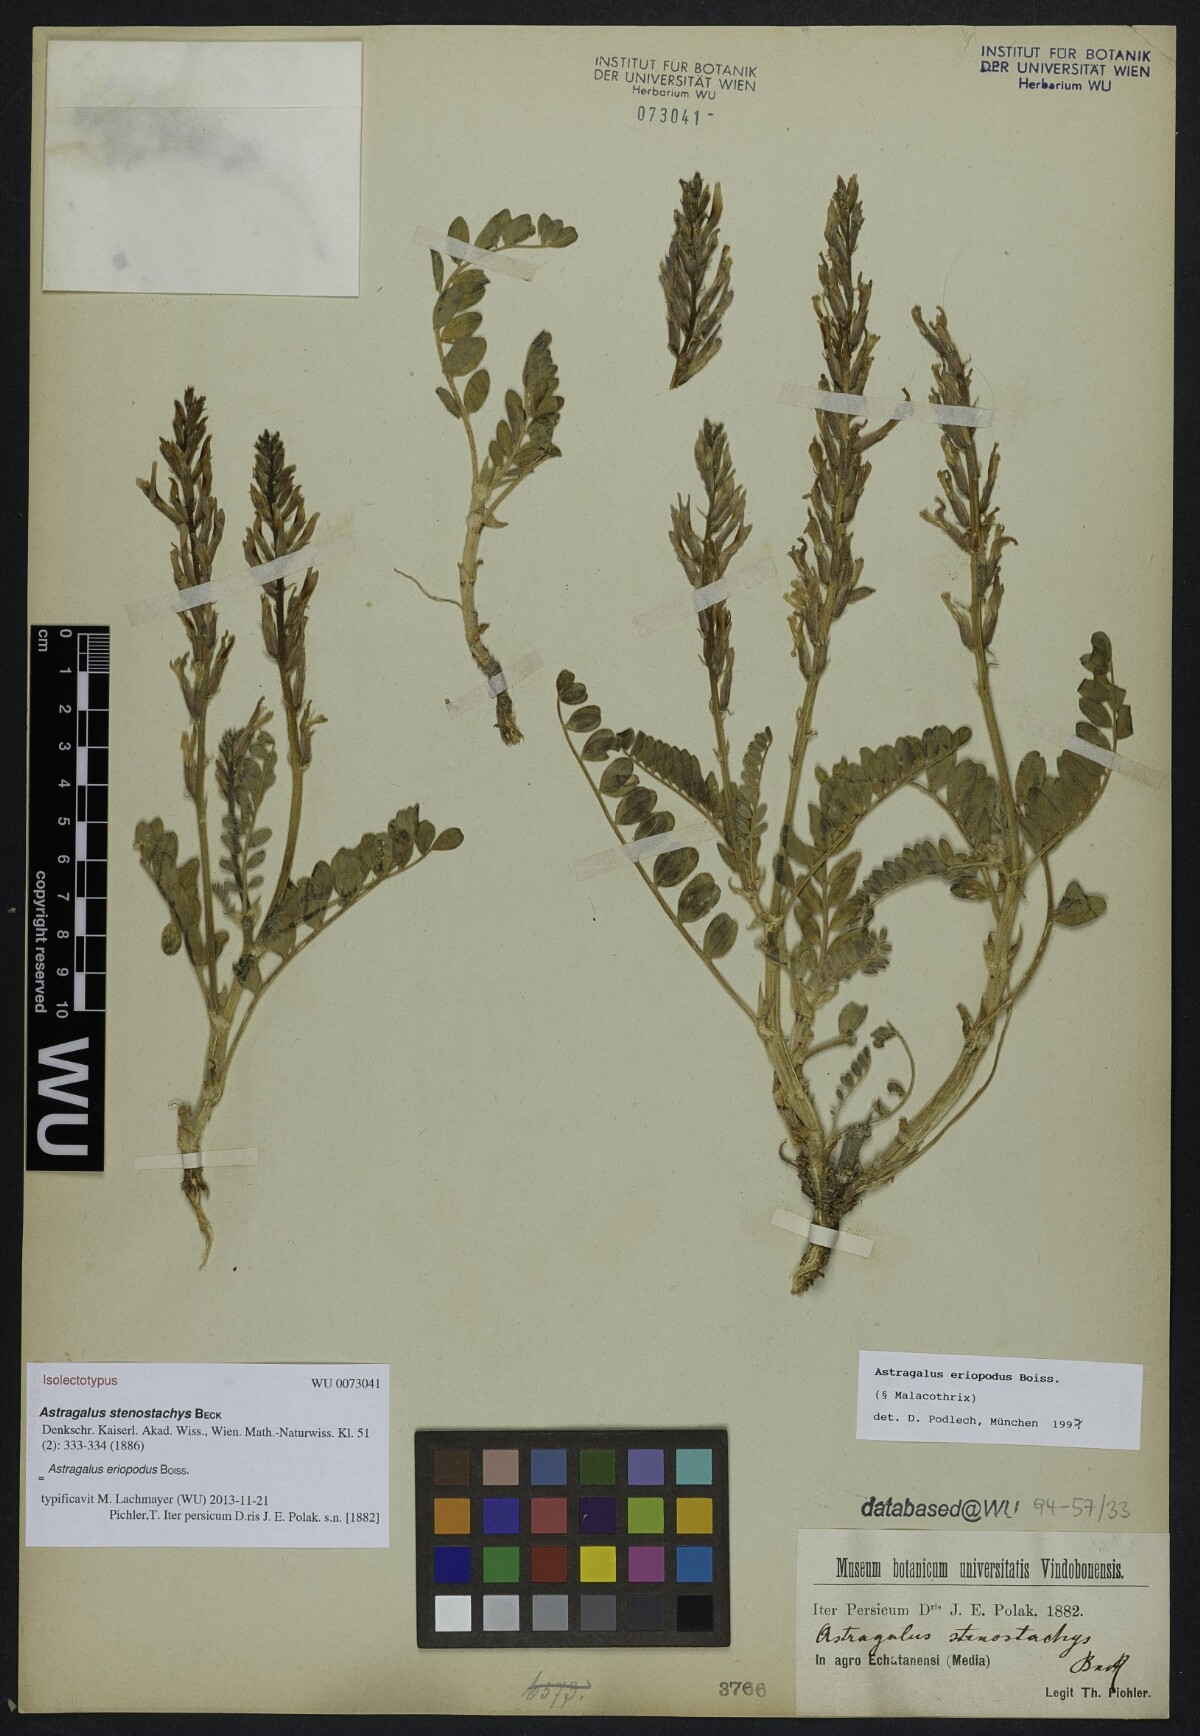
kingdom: Plantae
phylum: Tracheophyta
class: Magnoliopsida
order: Fabales
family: Fabaceae
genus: Astragalus
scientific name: Astragalus eriopodus
